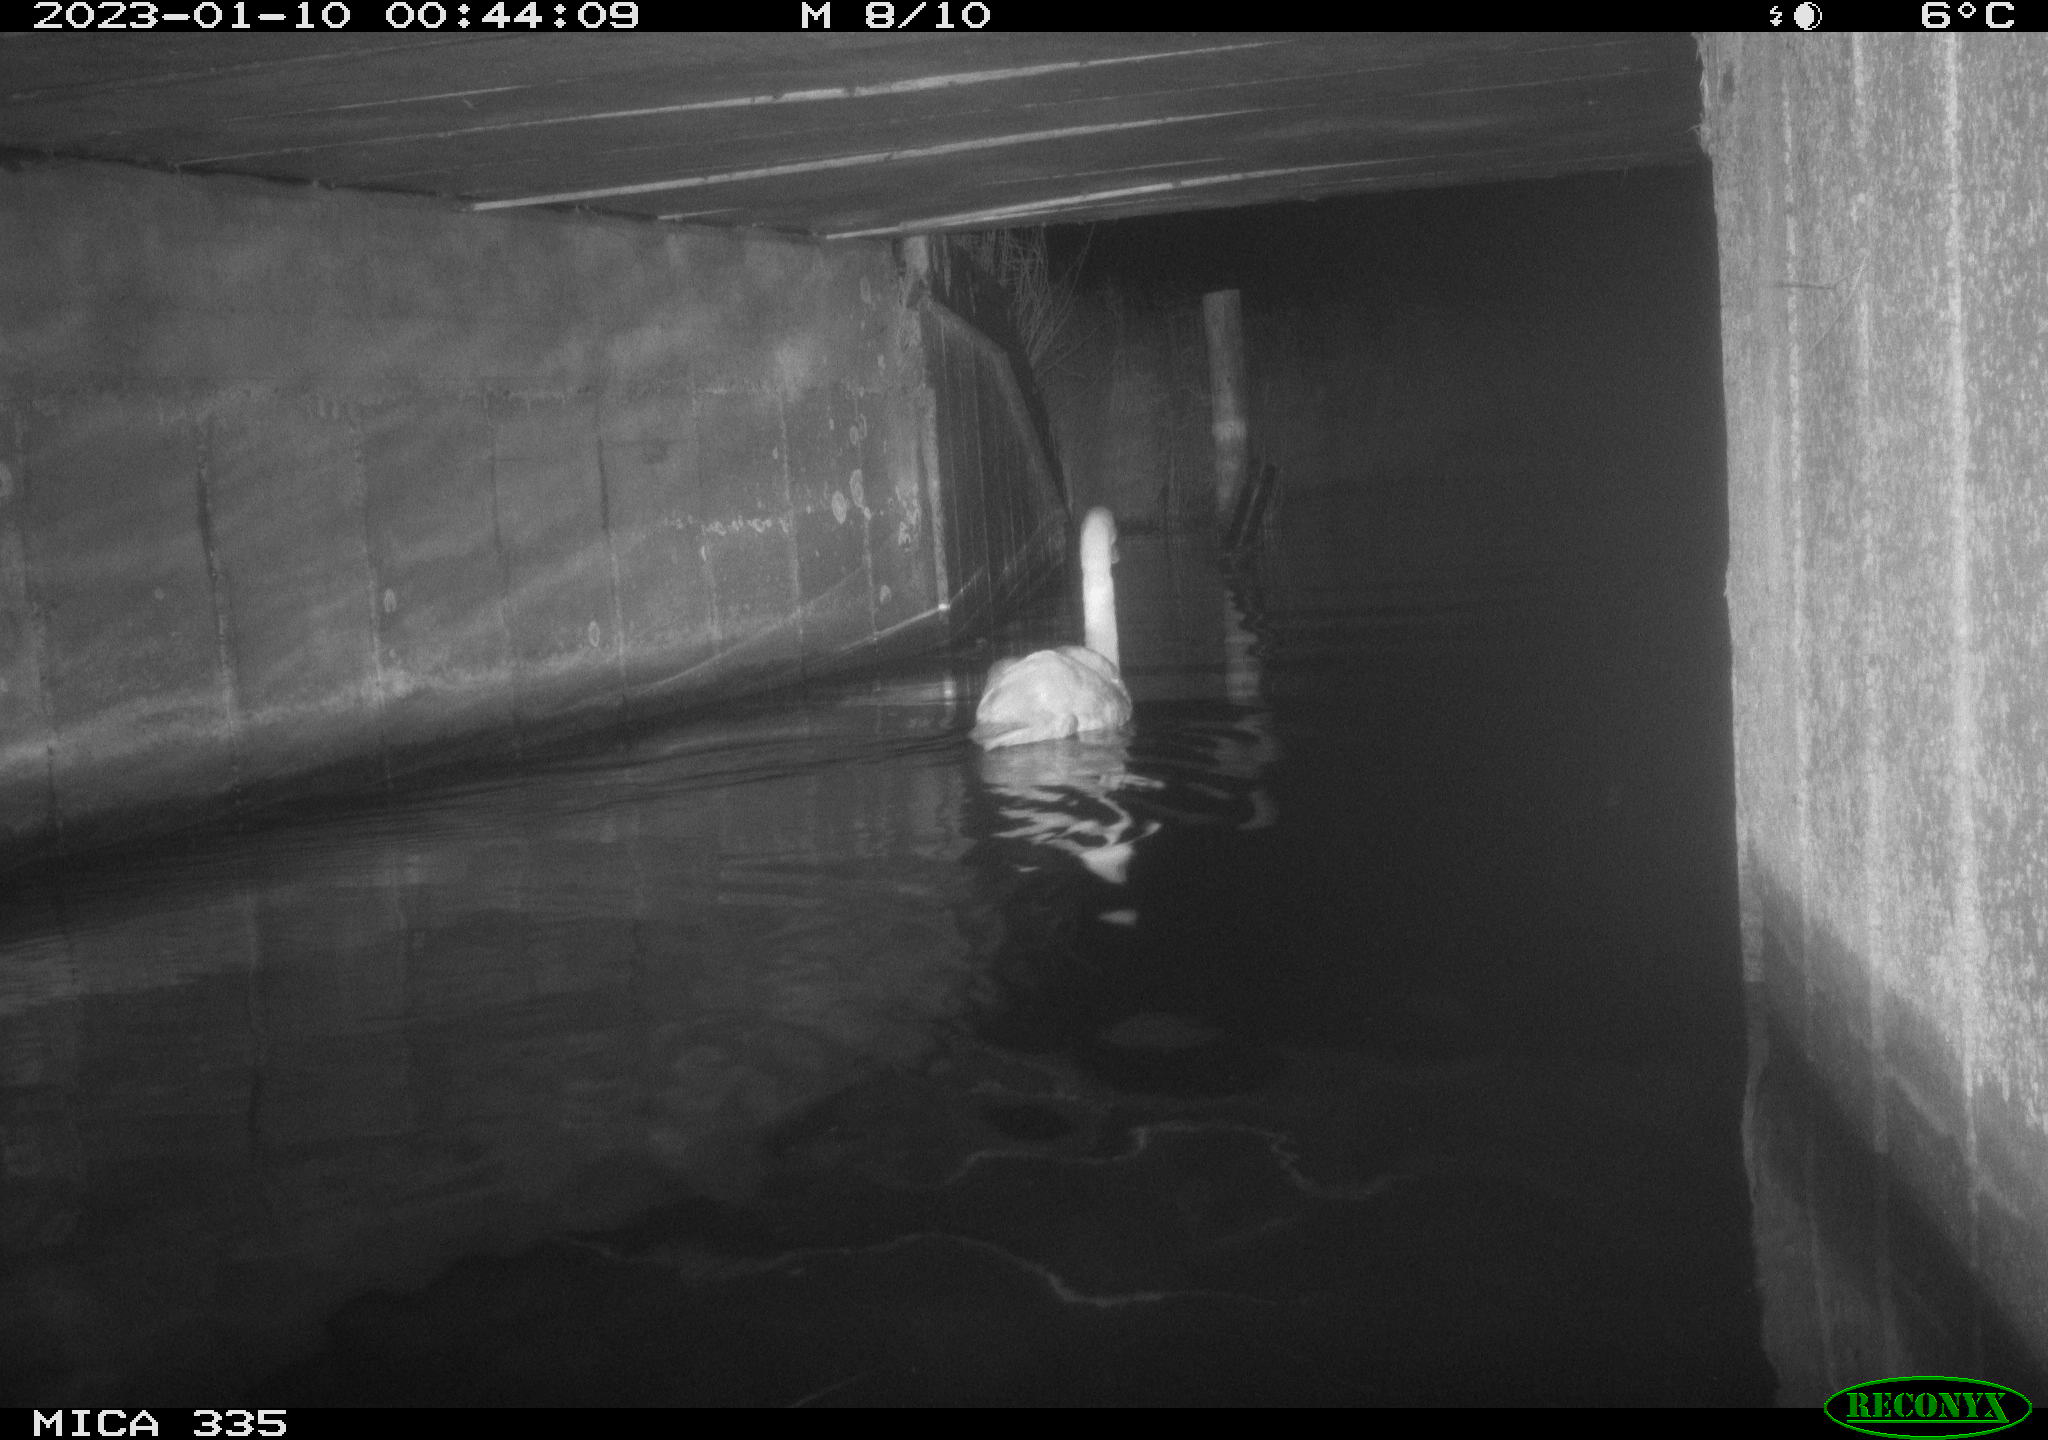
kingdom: Animalia
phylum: Chordata
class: Aves
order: Anseriformes
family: Anatidae
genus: Cygnus
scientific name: Cygnus olor
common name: Mute swan
